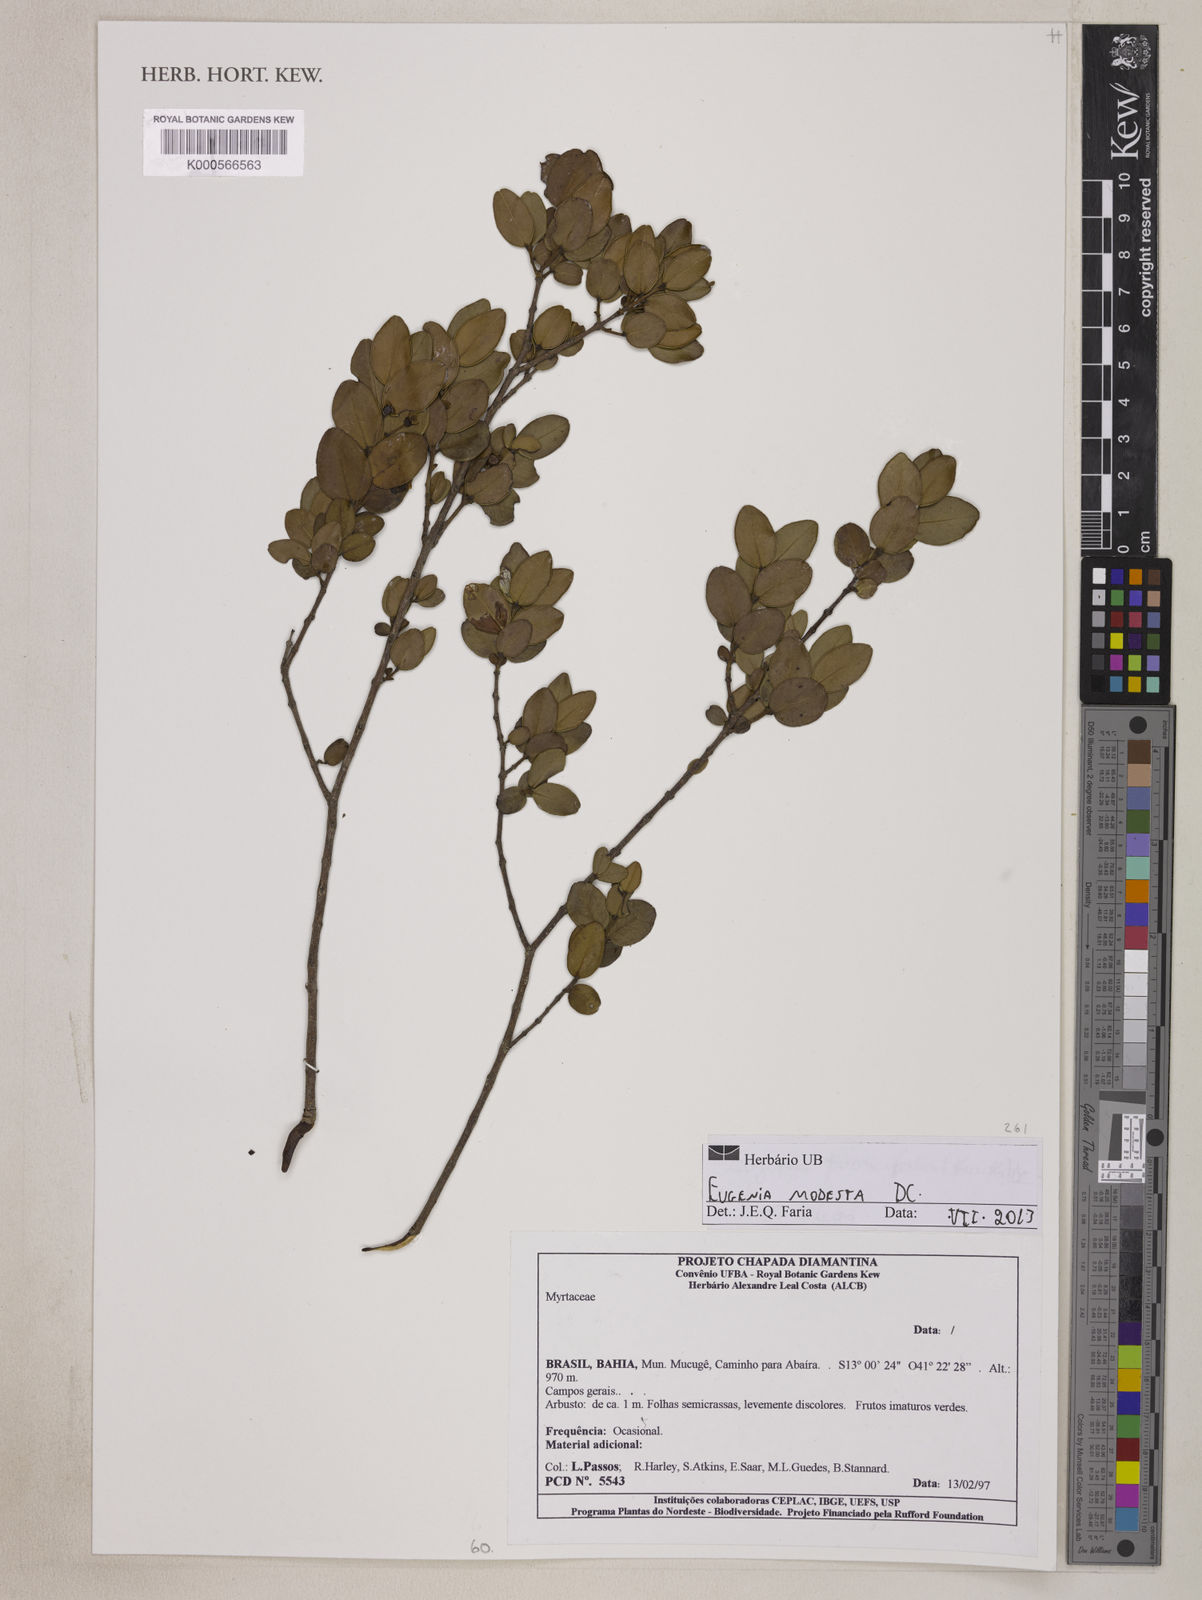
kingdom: Plantae
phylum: Tracheophyta
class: Magnoliopsida
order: Myrtales
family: Myrtaceae
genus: Luma
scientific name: Luma apiculata
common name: Chilean myrtle
